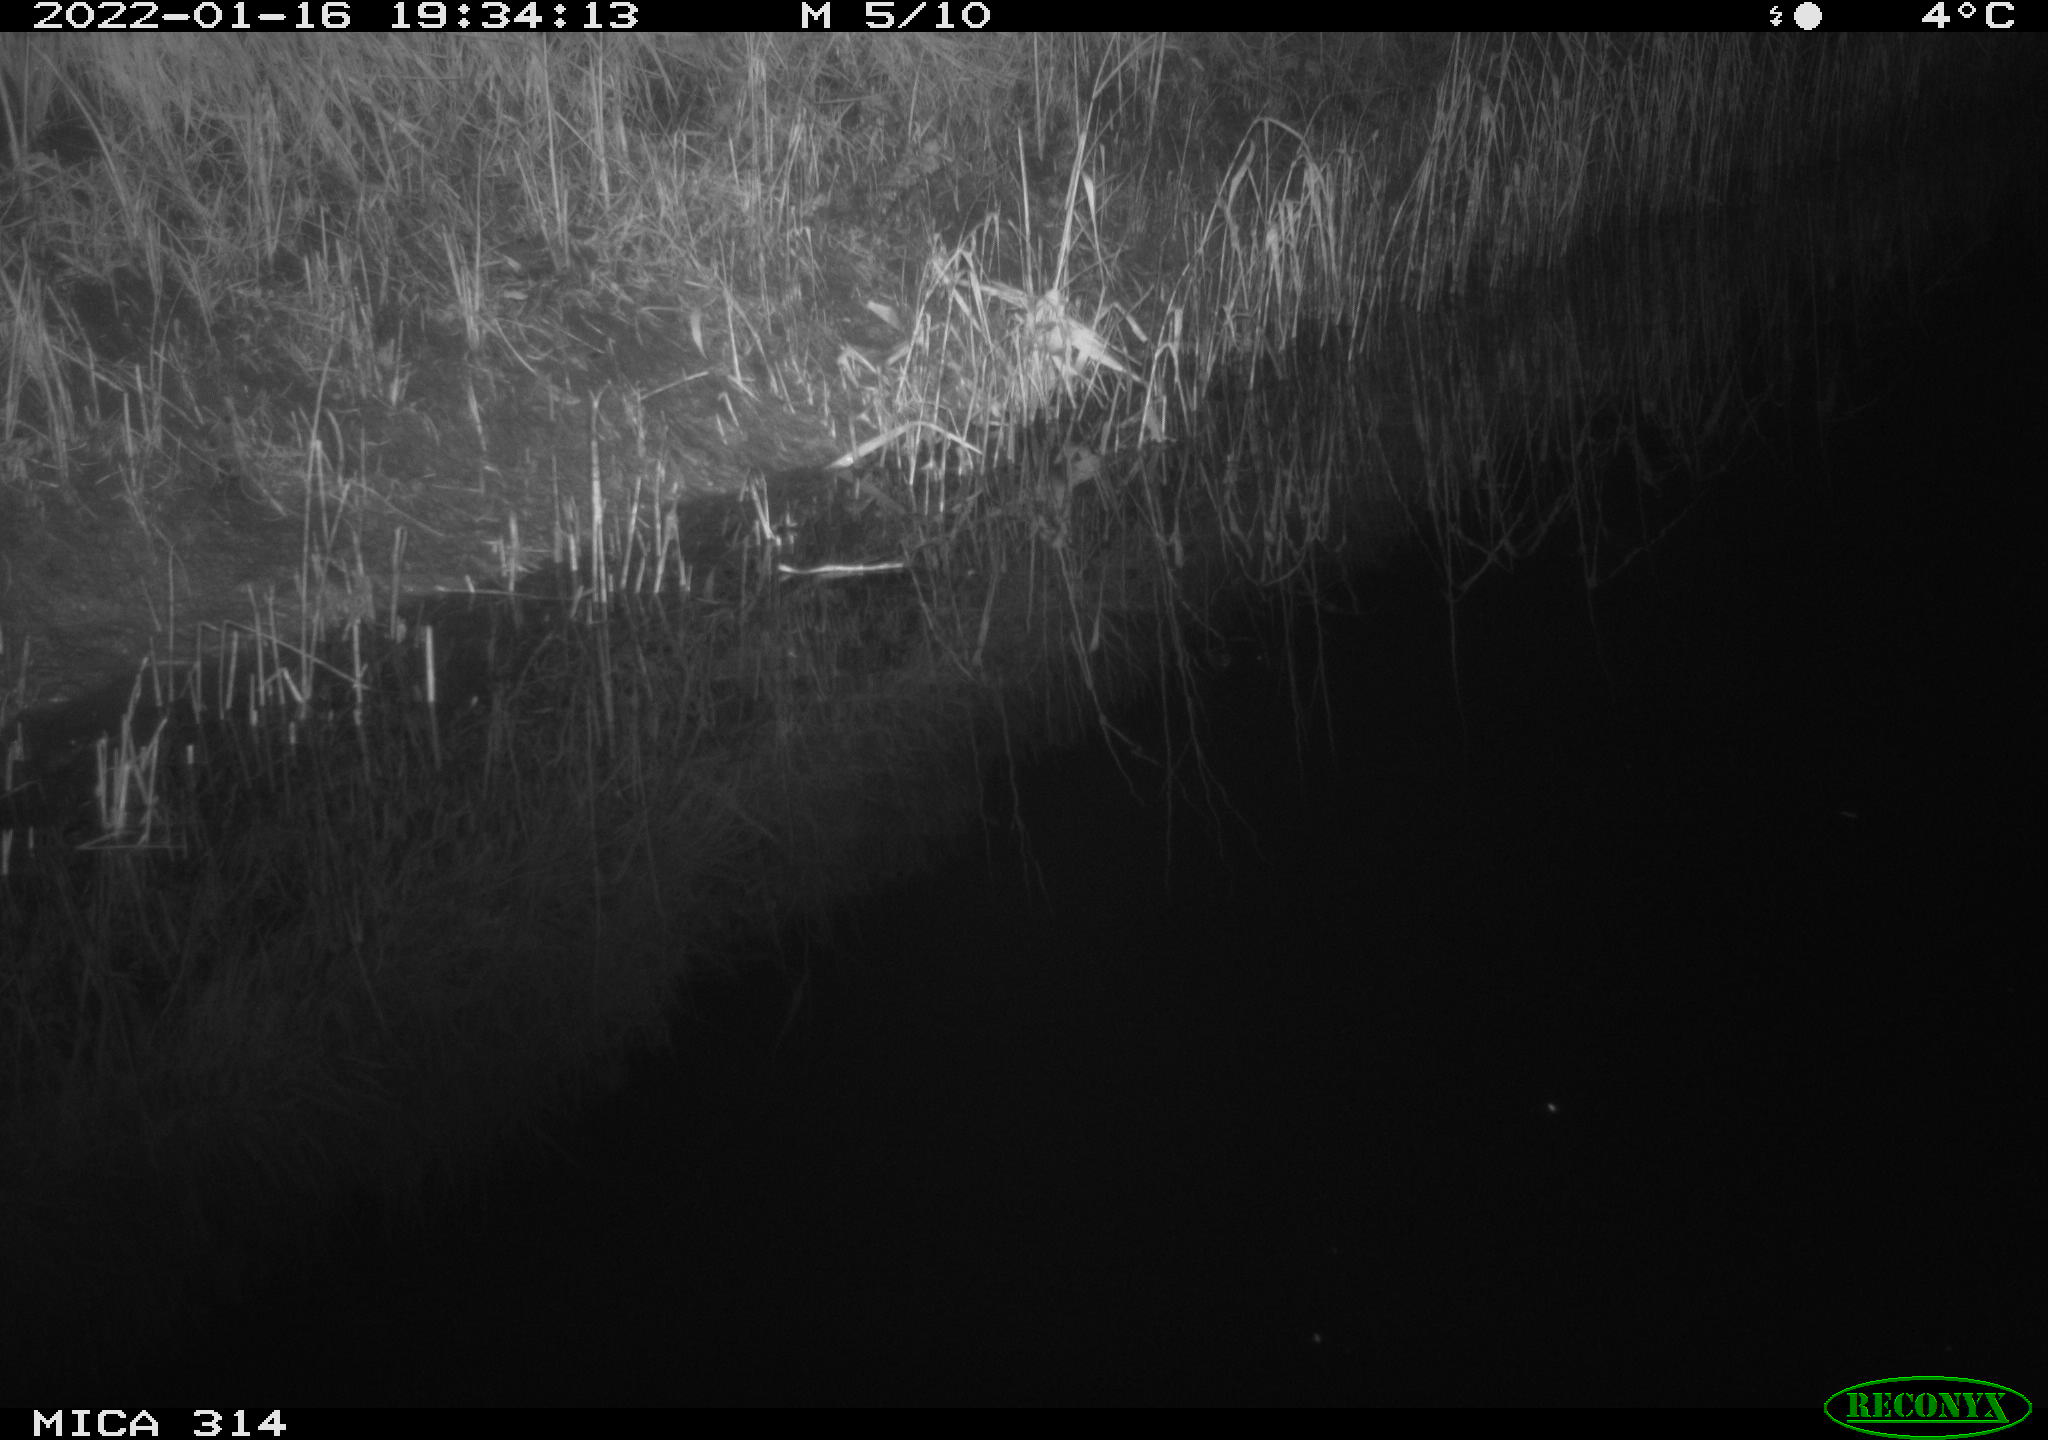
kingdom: Animalia
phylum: Chordata
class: Mammalia
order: Rodentia
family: Muridae
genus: Rattus
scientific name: Rattus norvegicus
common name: Brown rat
